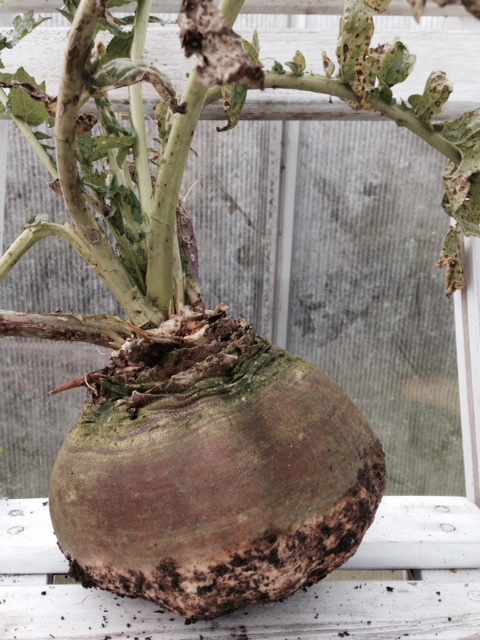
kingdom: Plantae
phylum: Tracheophyta
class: Magnoliopsida
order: Brassicales
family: Brassicaceae
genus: Brassica
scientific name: Brassica rapa
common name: Field mustard
